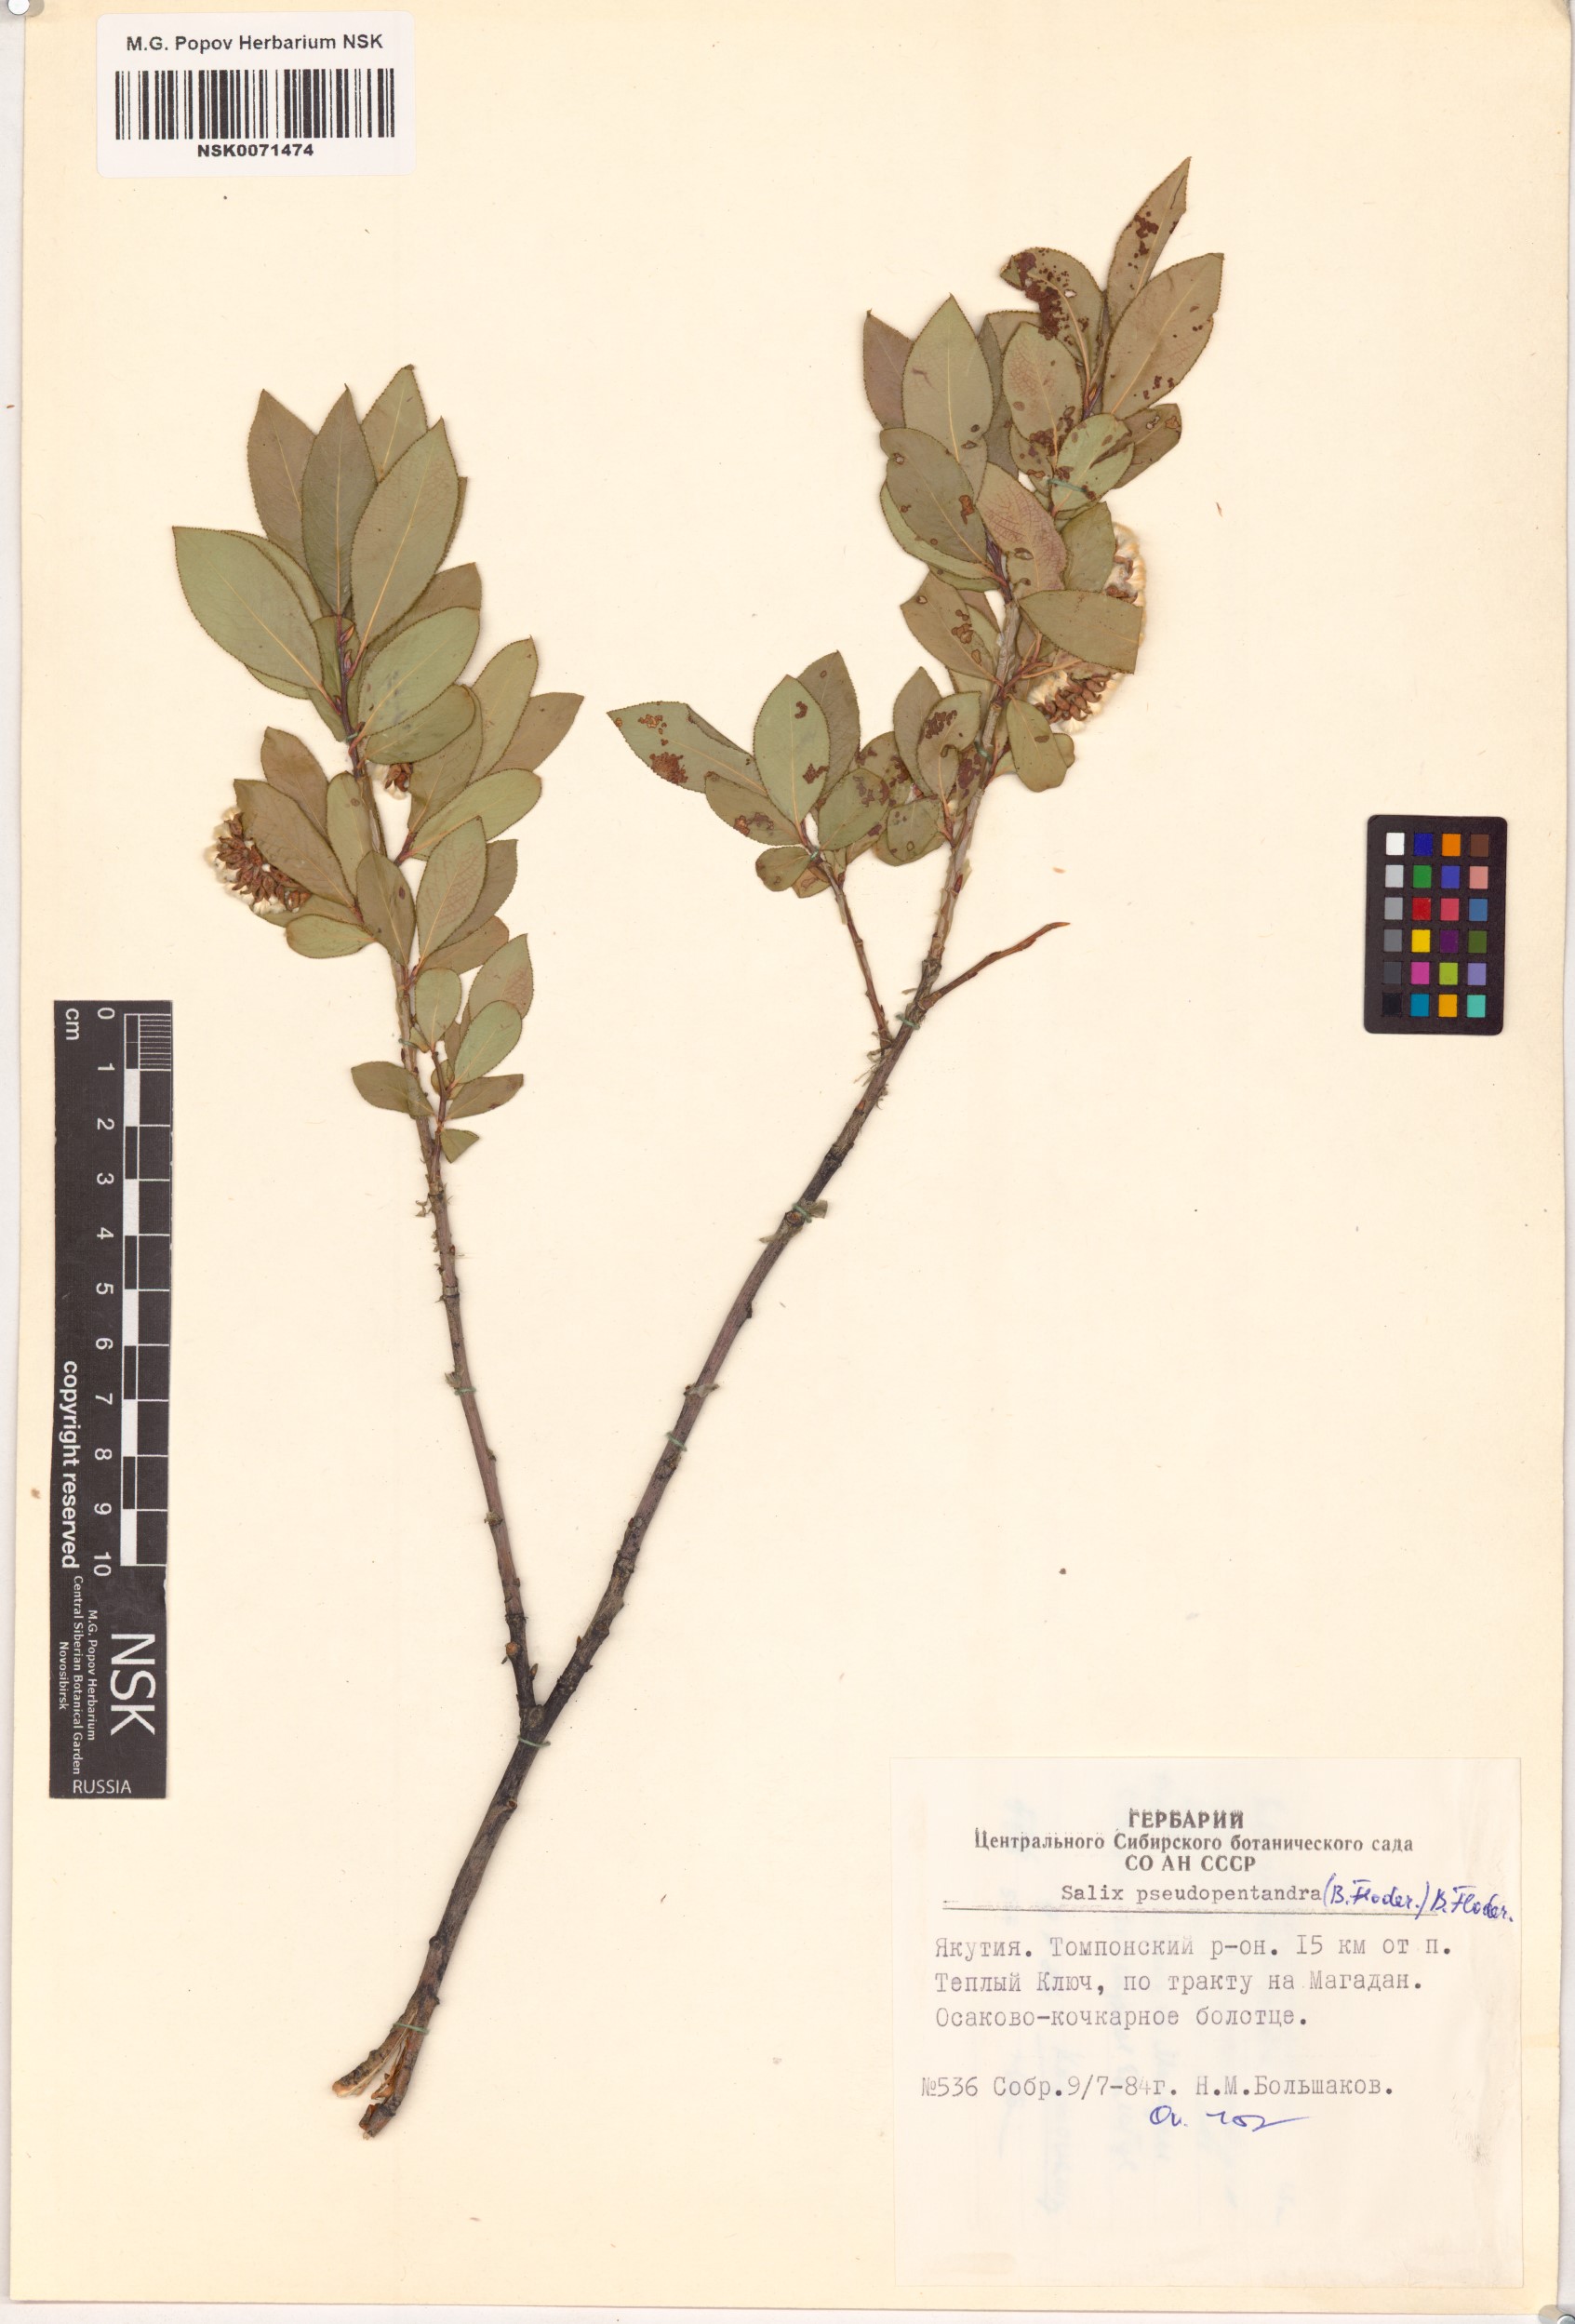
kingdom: Plantae
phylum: Tracheophyta
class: Magnoliopsida
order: Malpighiales
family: Salicaceae
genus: Salix
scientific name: Salix pseudopentandra
